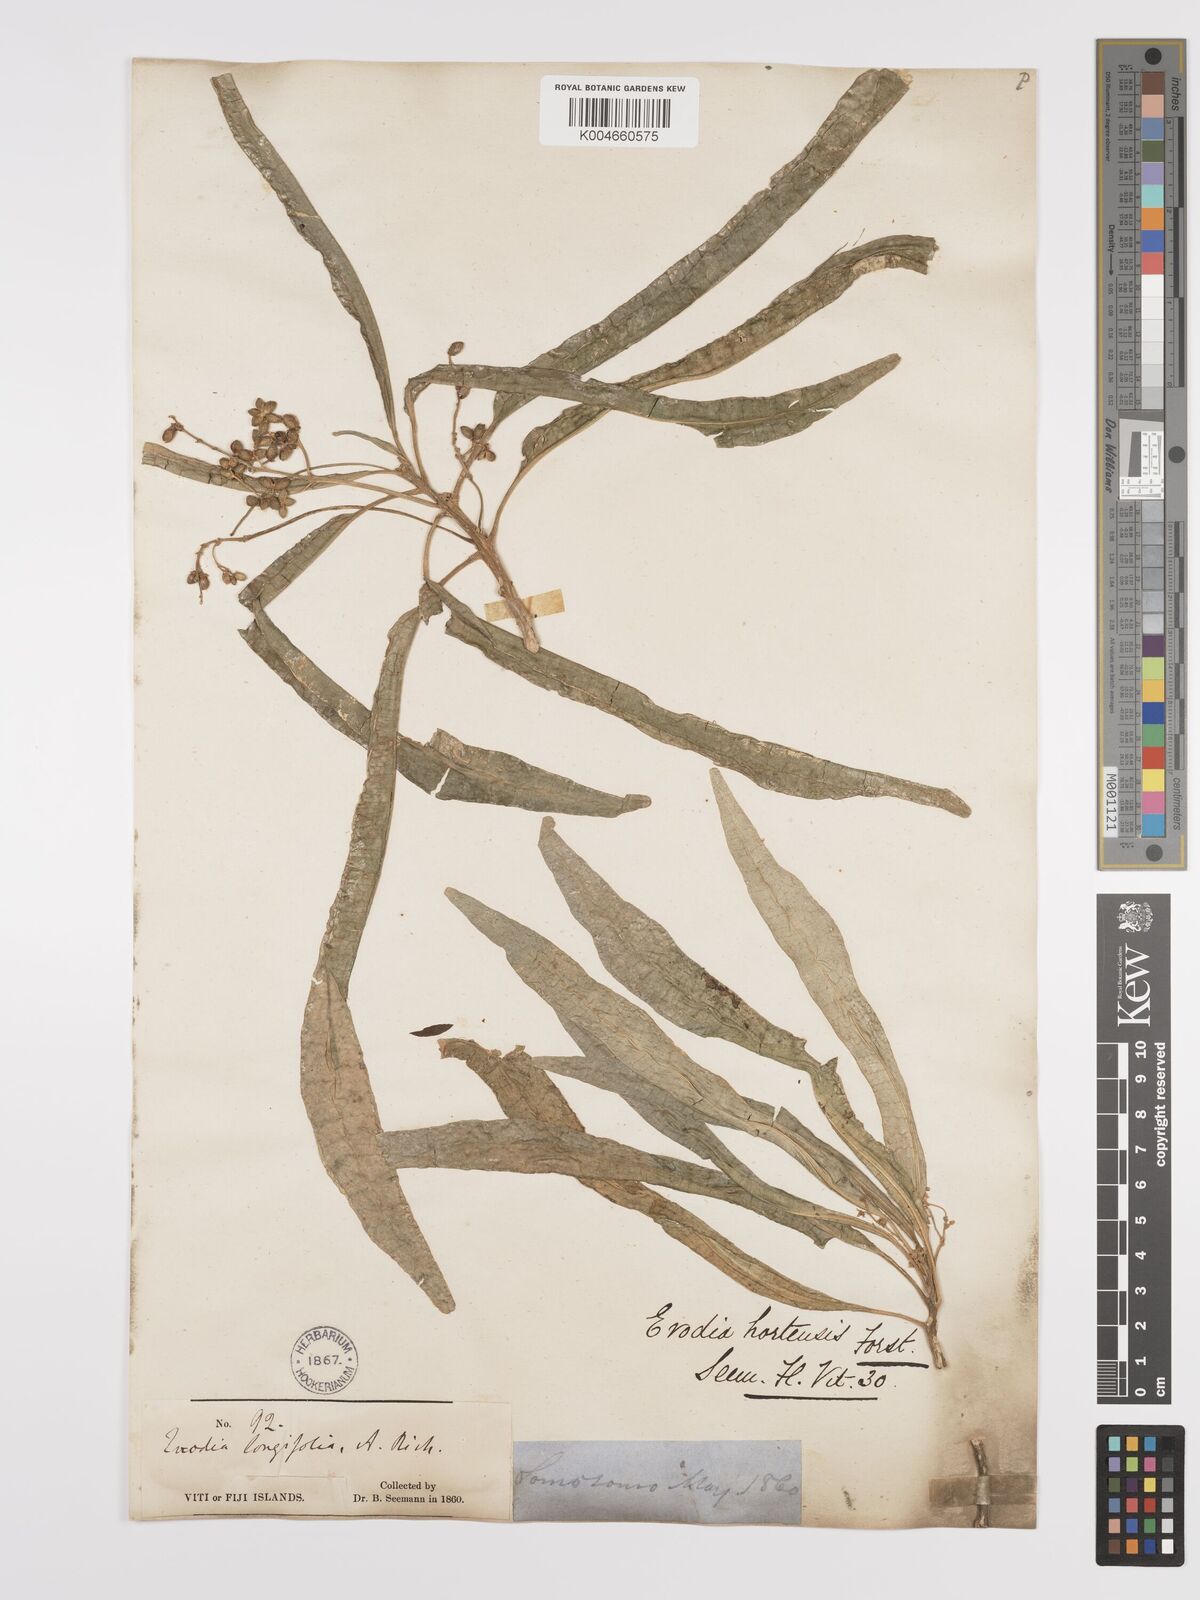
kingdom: Plantae
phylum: Tracheophyta
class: Magnoliopsida
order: Sapindales
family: Rutaceae
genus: Euodia
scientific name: Euodia hortensis
